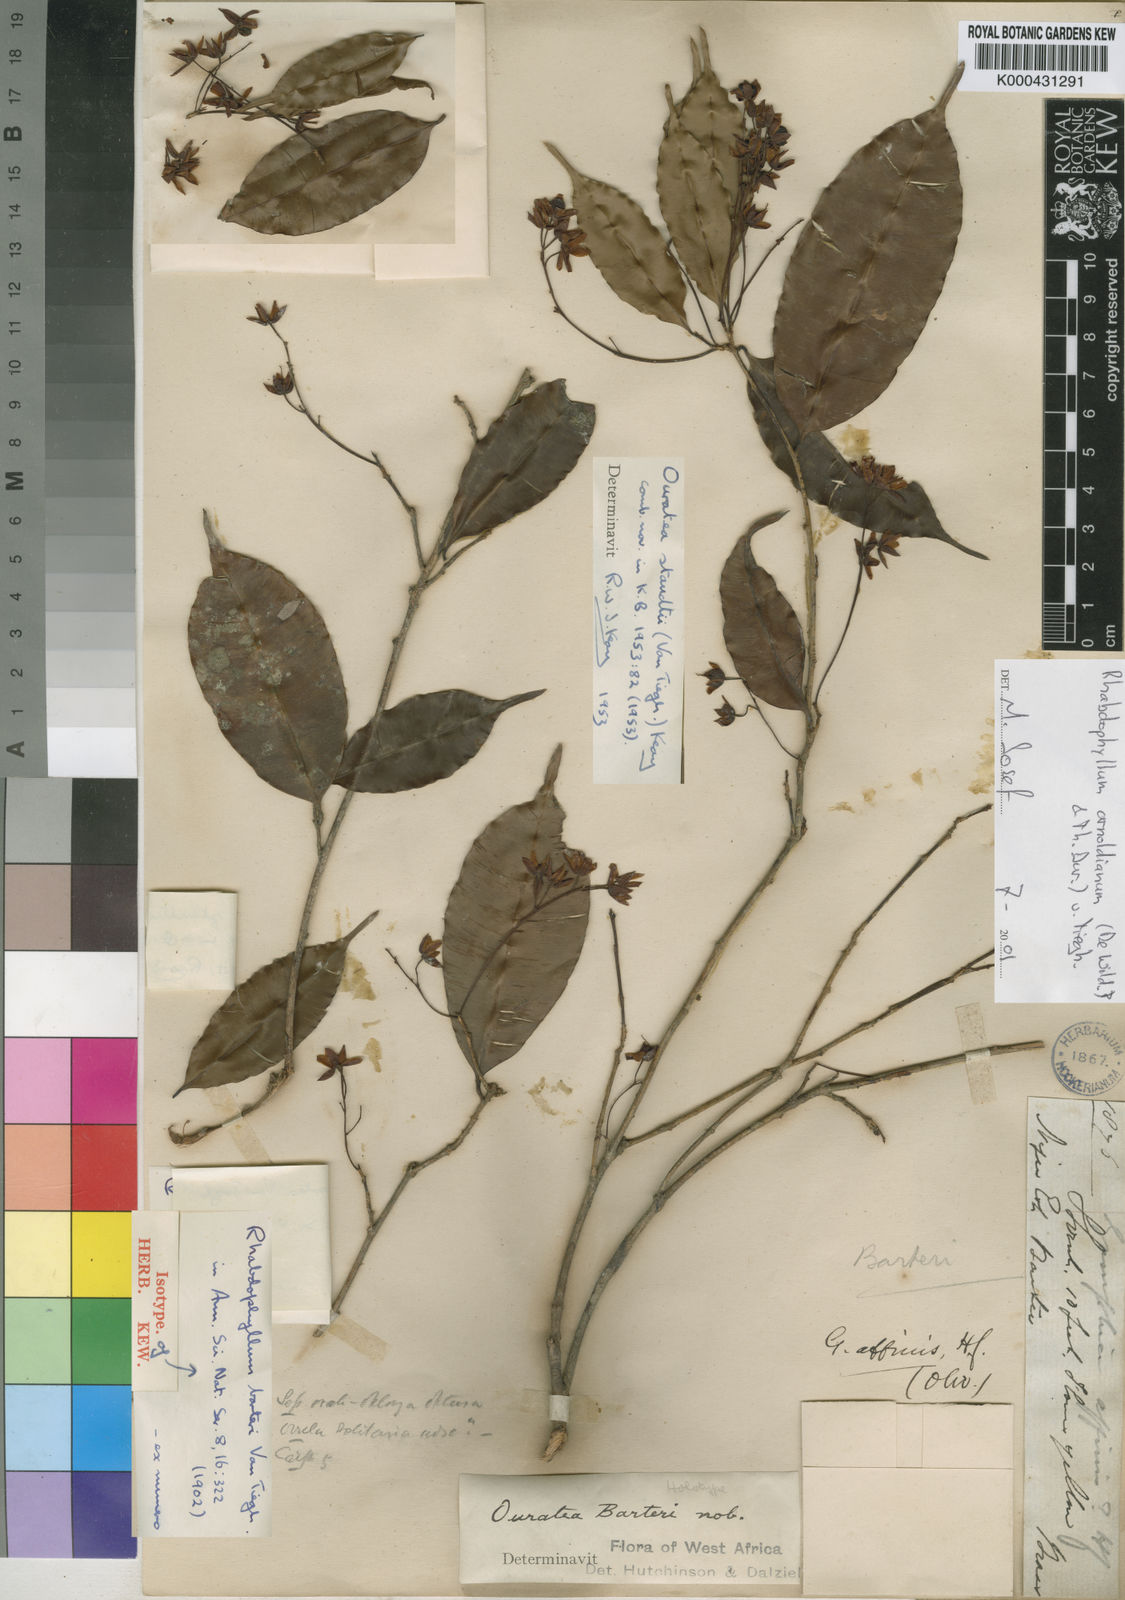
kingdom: Plantae
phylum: Tracheophyta
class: Magnoliopsida
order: Malpighiales
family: Ochnaceae
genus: Rhabdophyllum
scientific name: Rhabdophyllum
